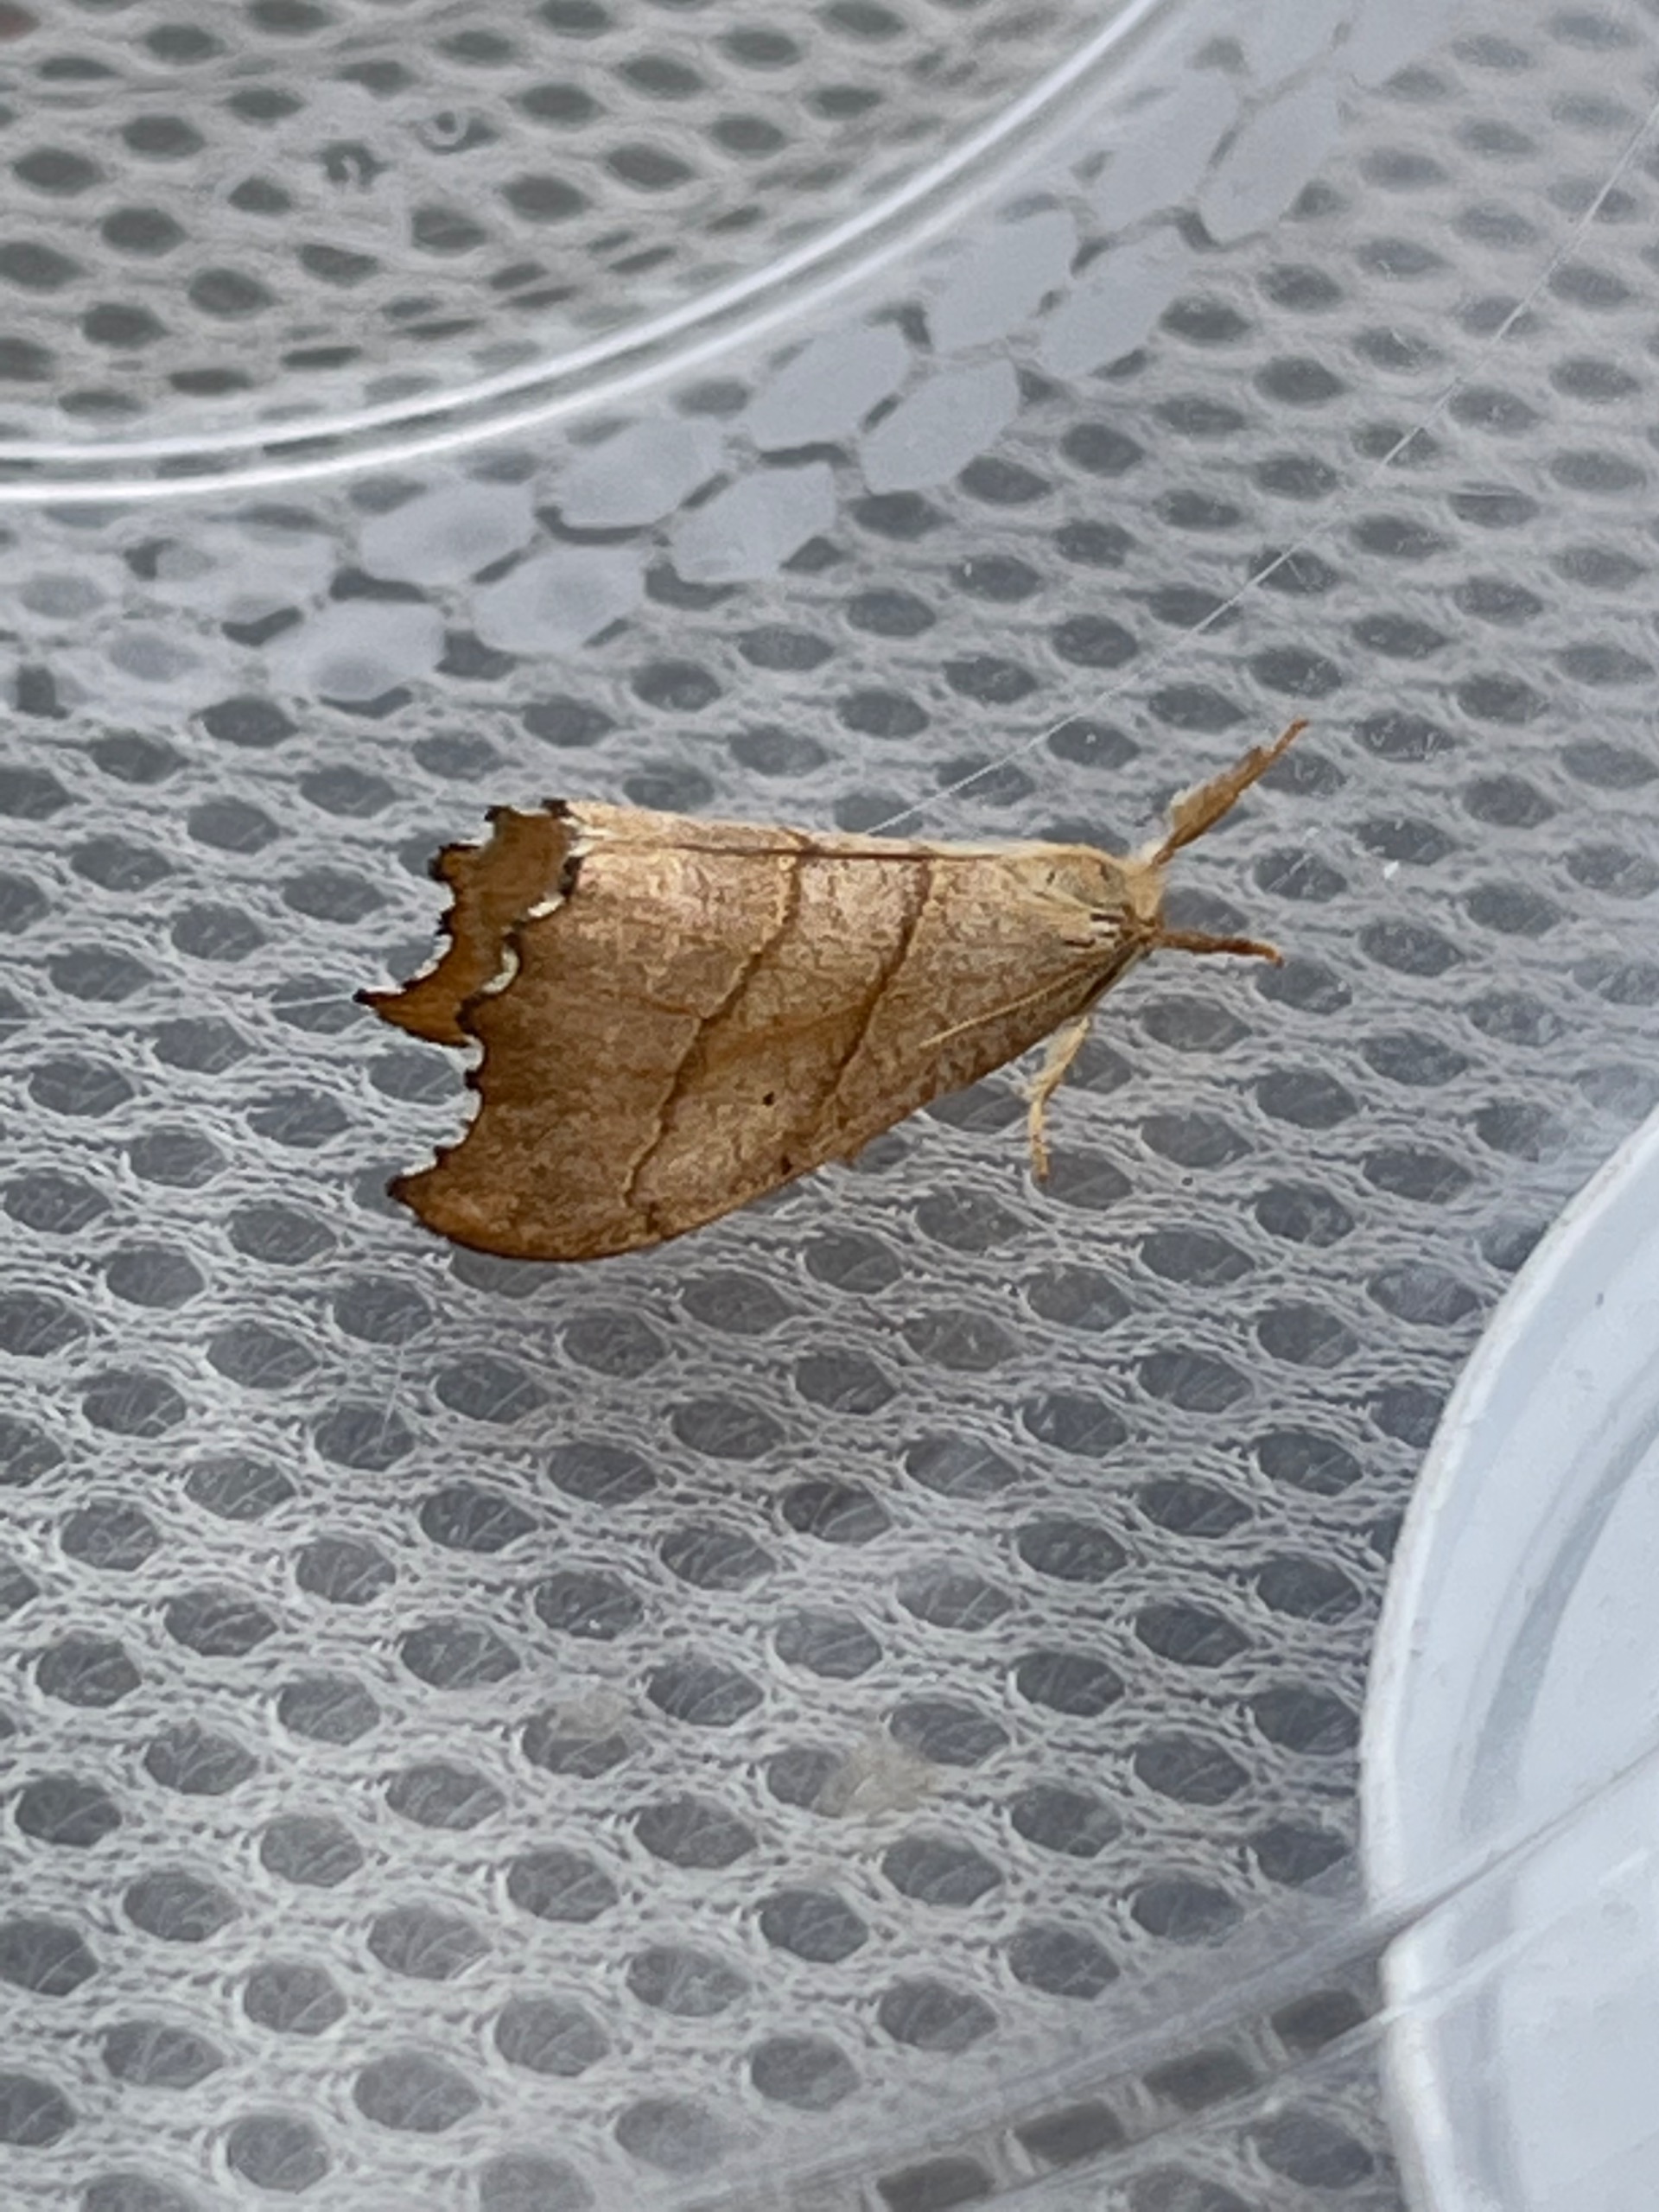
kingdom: Animalia
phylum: Arthropoda
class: Insecta
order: Lepidoptera
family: Drepanidae
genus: Falcaria
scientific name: Falcaria lacertinaria
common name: Tandet seglvinge
